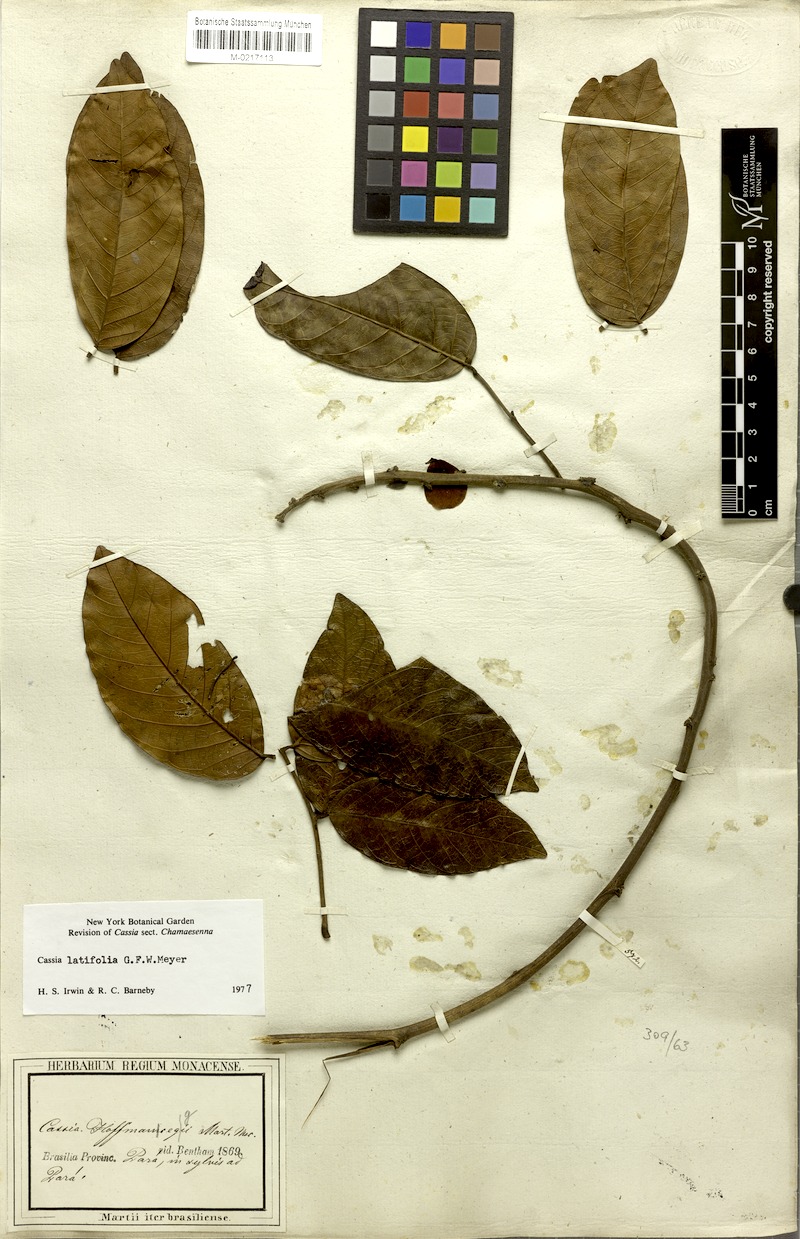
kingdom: Plantae
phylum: Tracheophyta
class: Magnoliopsida
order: Fabales
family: Fabaceae
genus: Senna
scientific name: Senna latifolia
